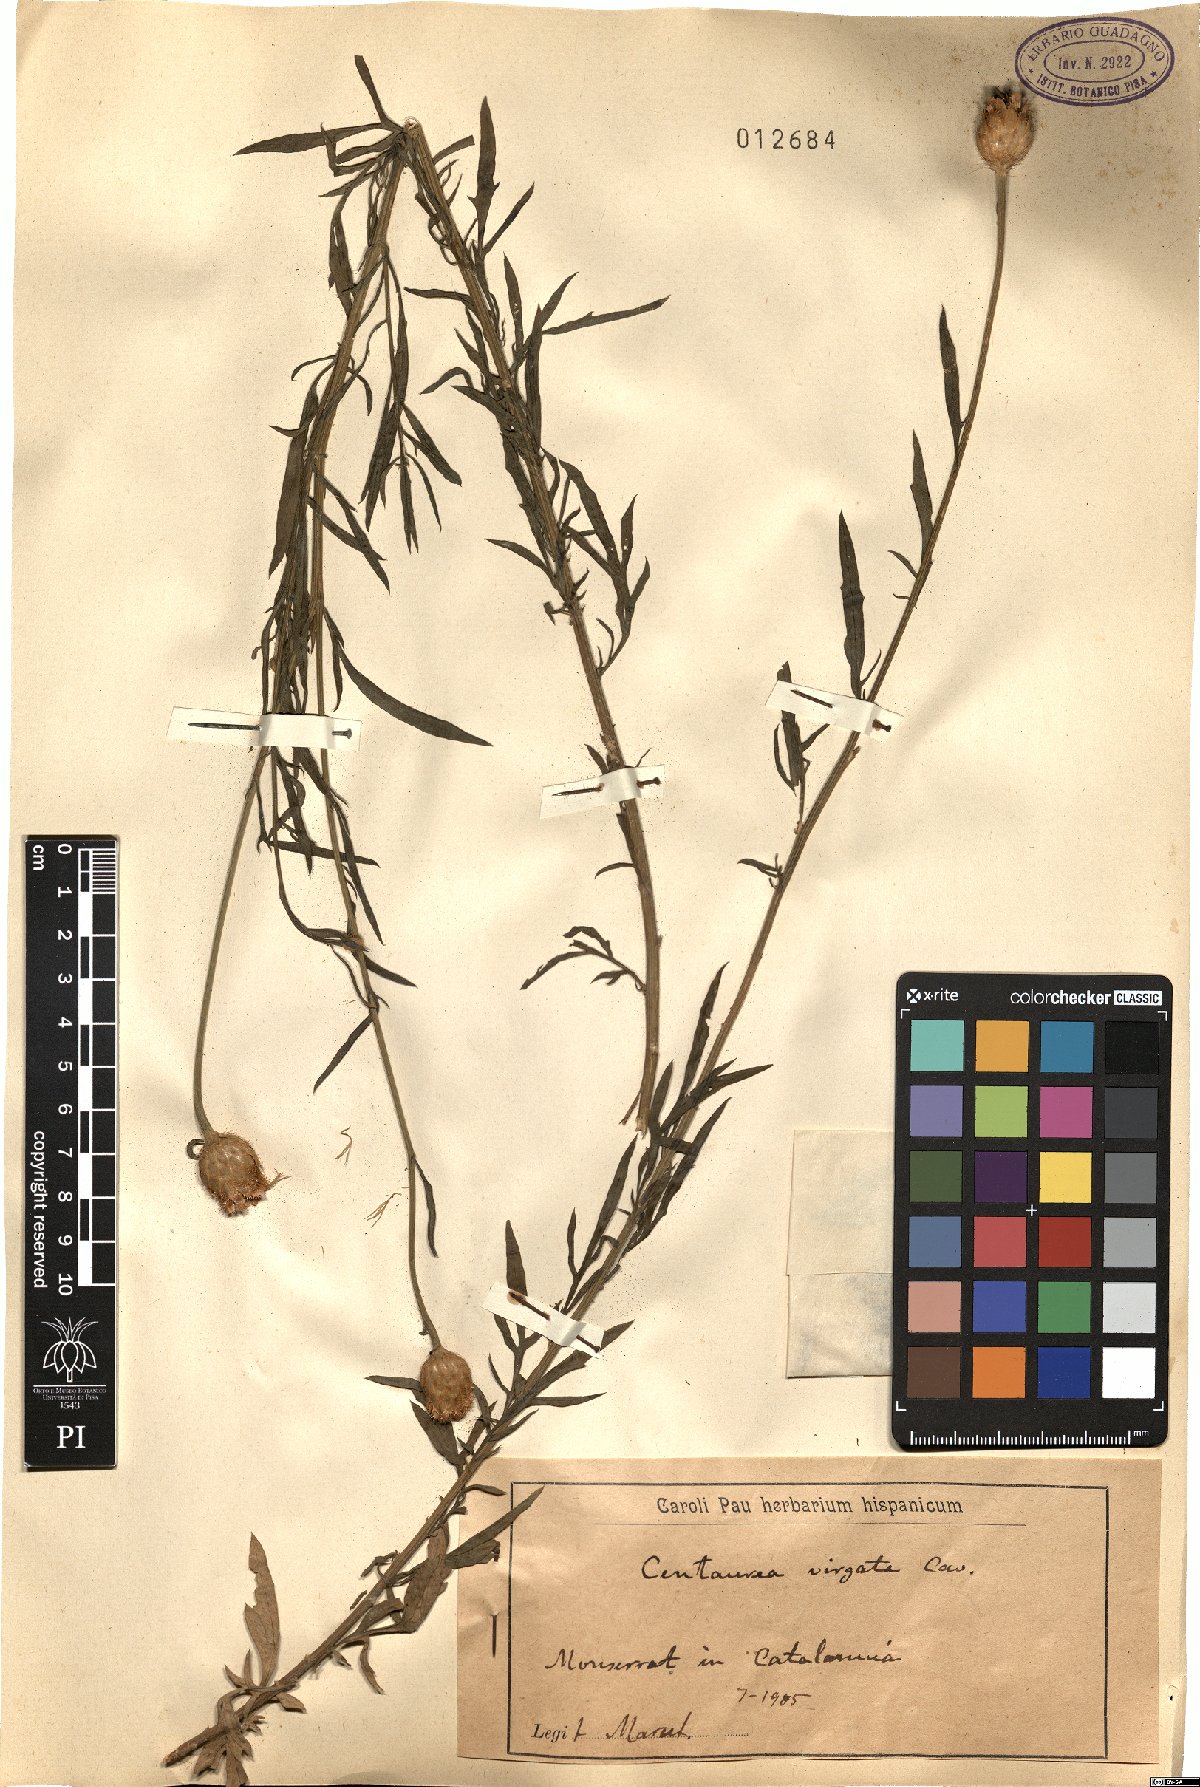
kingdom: Plantae
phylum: Tracheophyta
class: Magnoliopsida
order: Asterales
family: Asteraceae
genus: Centaurea
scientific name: Centaurea virgata
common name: Squarrose knapweed
